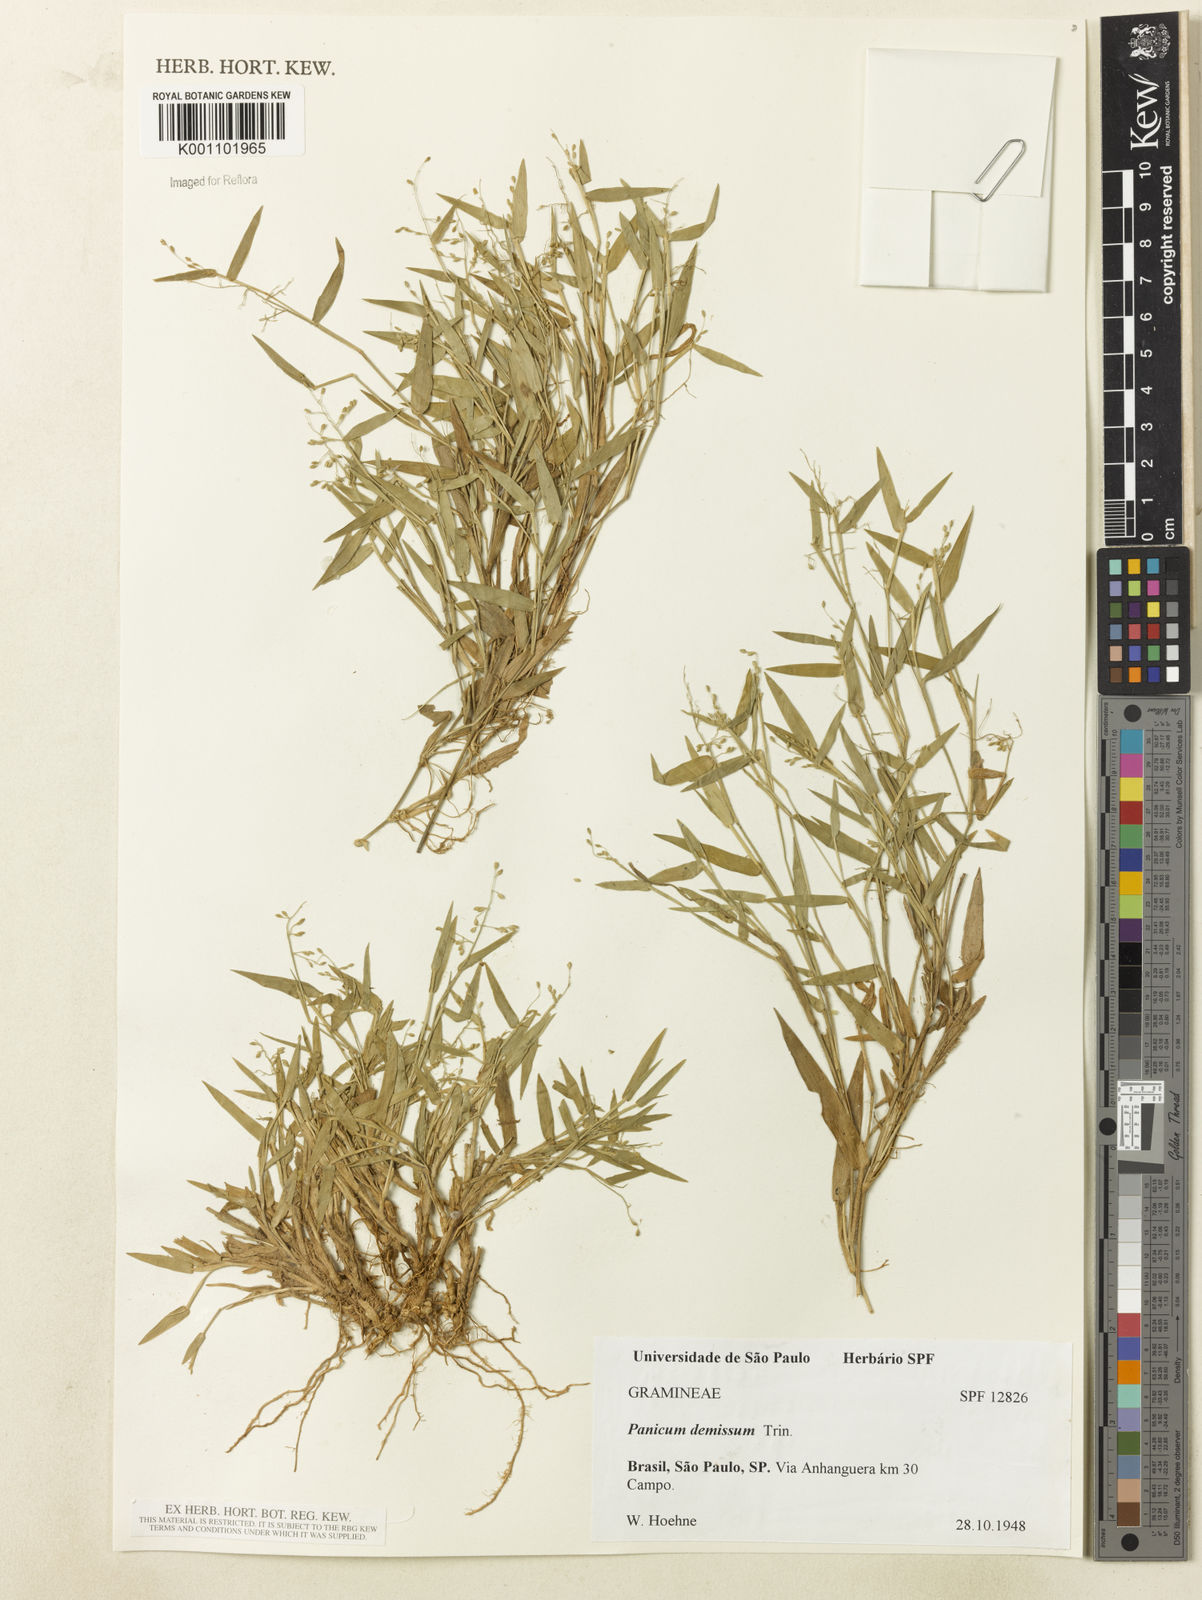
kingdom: Plantae
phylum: Tracheophyta
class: Liliopsida
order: Poales
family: Poaceae
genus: Dichanthelium
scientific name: Dichanthelium sabulorum
